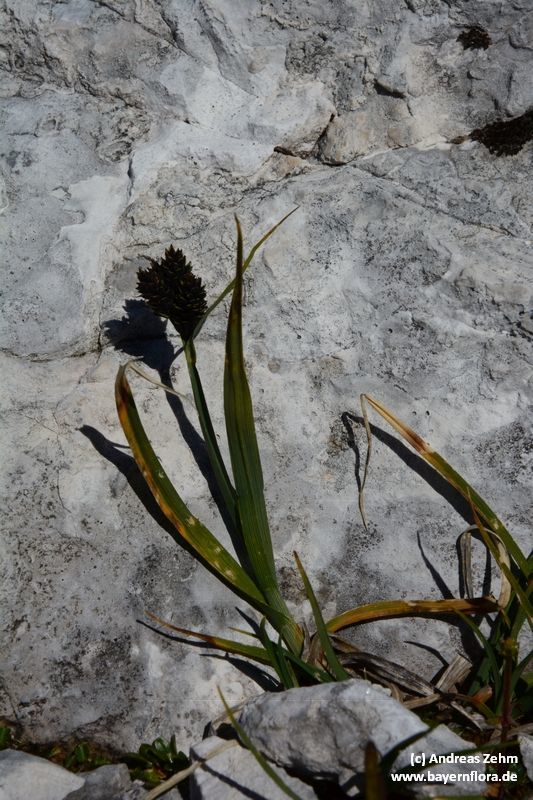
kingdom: Plantae
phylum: Tracheophyta
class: Liliopsida
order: Poales
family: Cyperaceae
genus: Carex
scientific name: Carex parviflora
